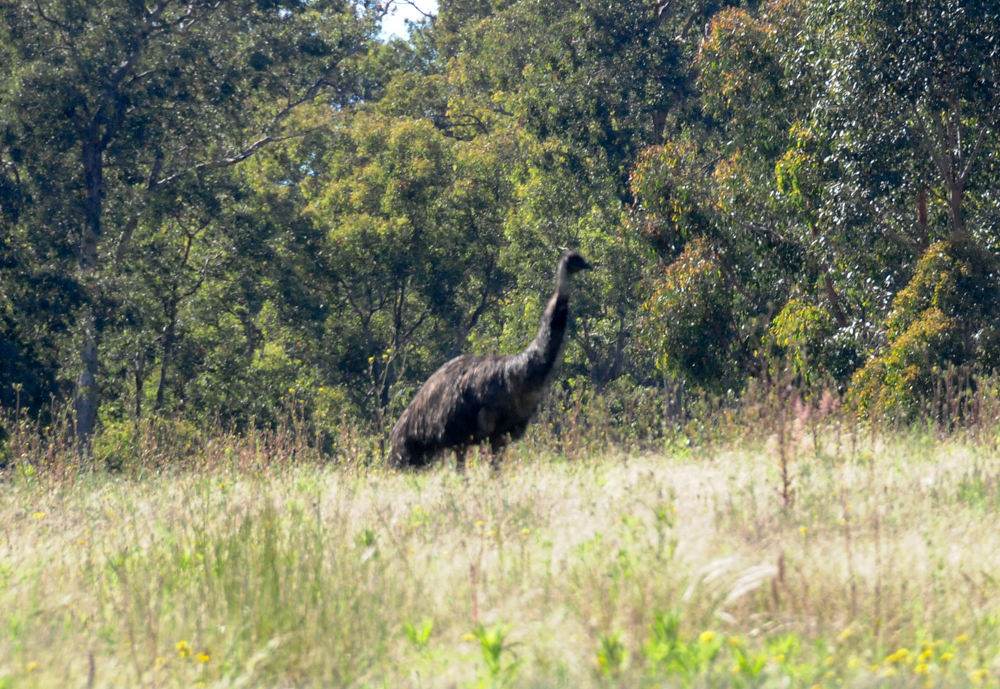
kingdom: Animalia
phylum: Chordata
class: Aves
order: Casuariiformes
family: Dromaiidae
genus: Dromaius
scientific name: Dromaius novaehollandiae
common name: Emu
